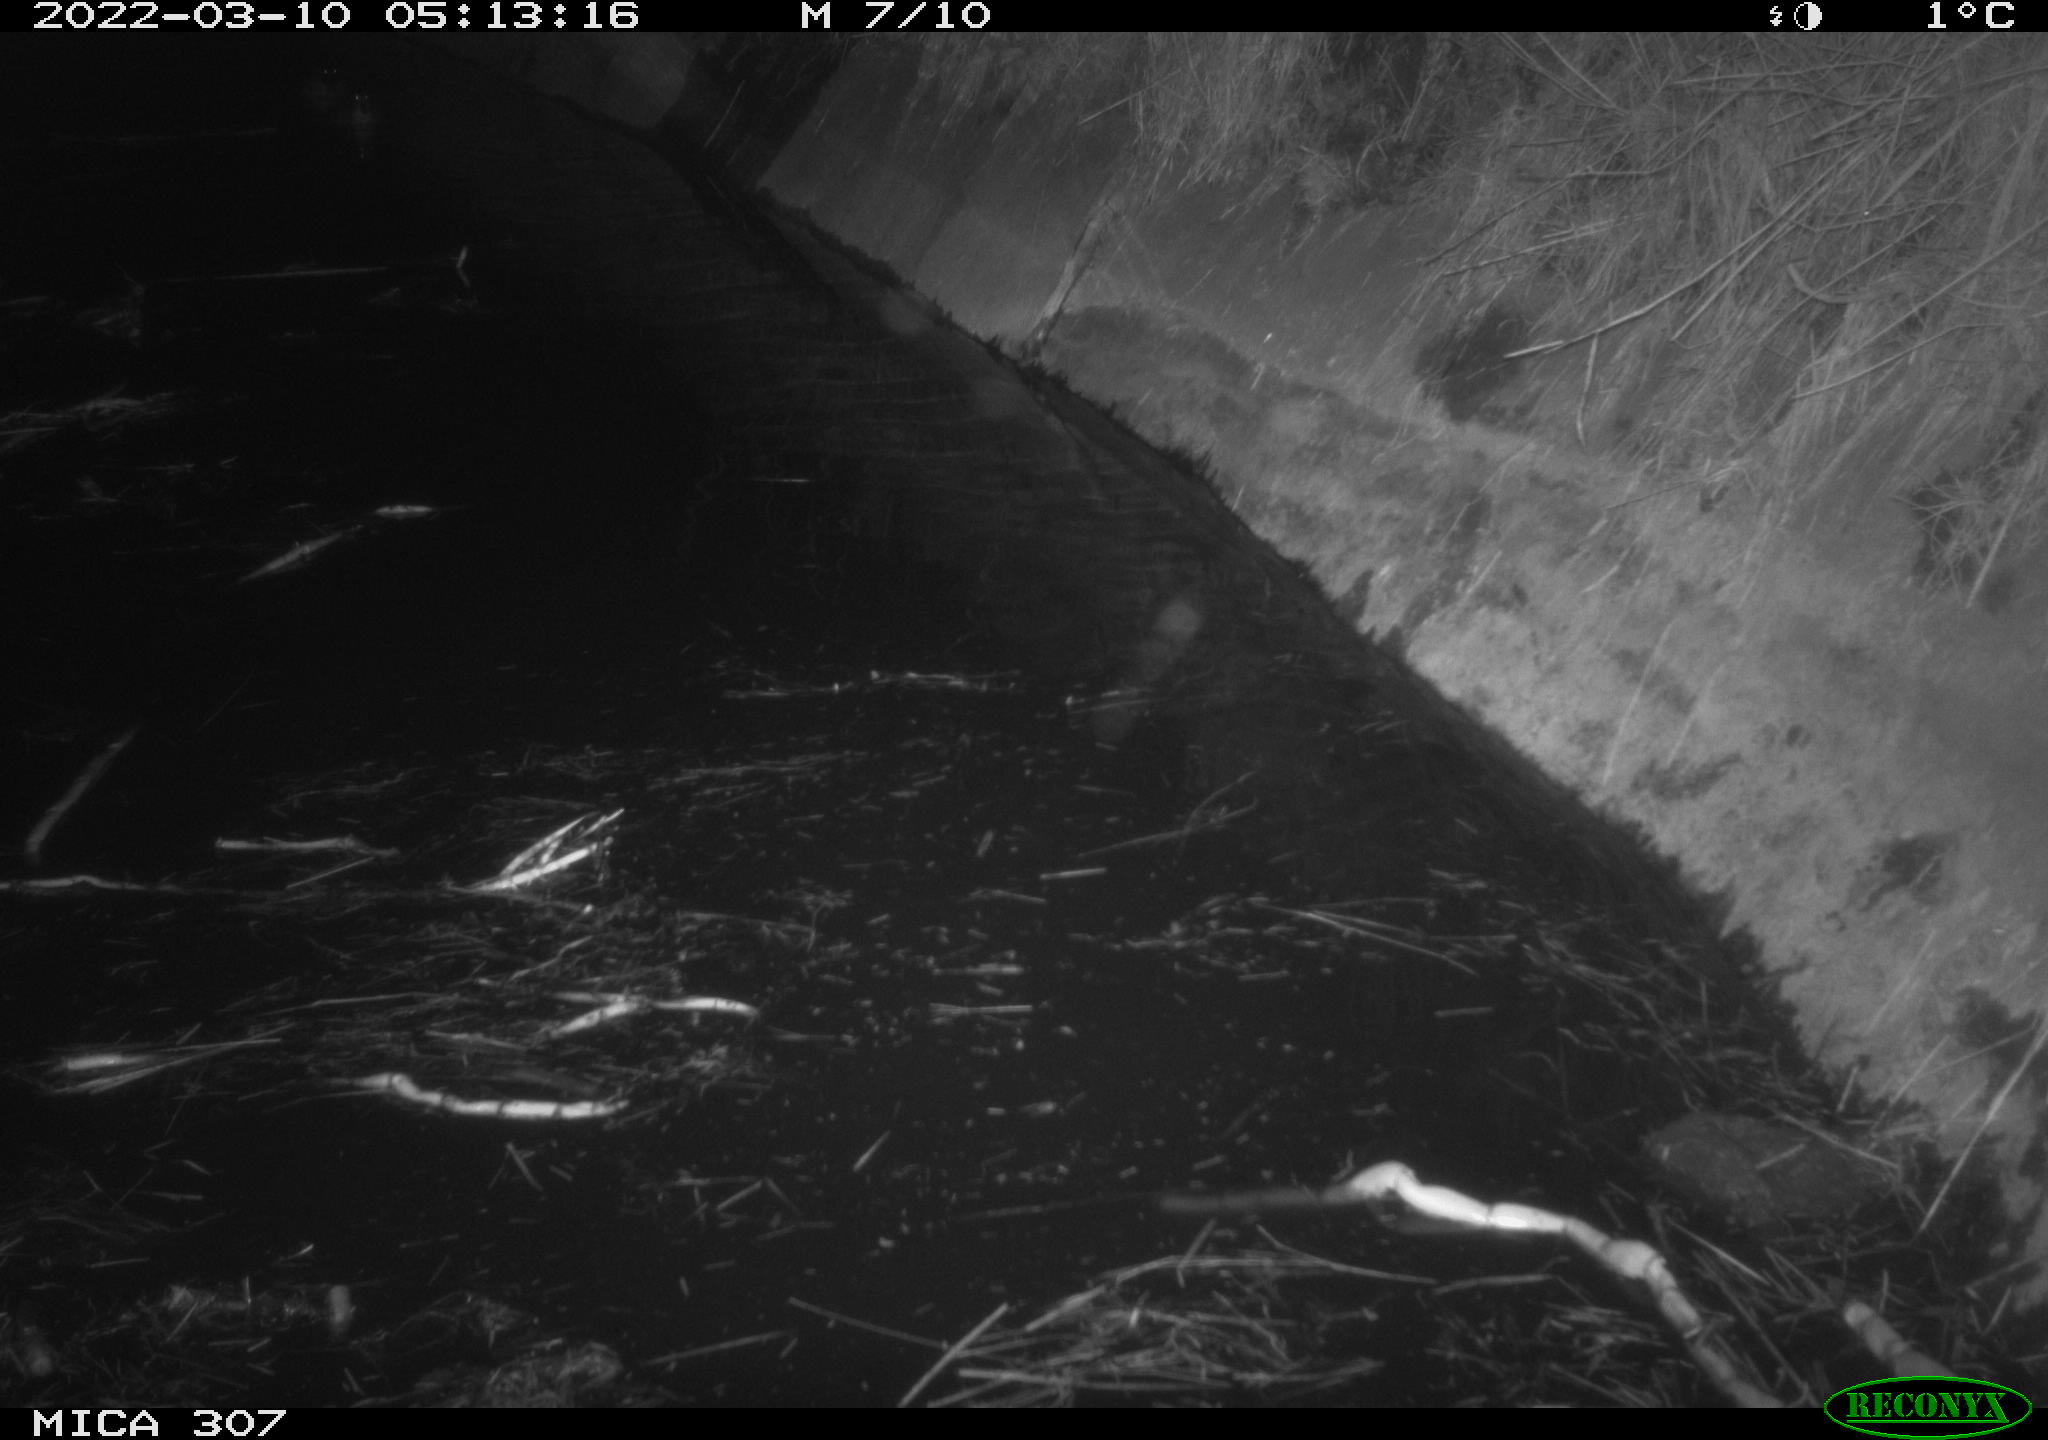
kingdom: Animalia
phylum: Chordata
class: Mammalia
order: Rodentia
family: Cricetidae
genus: Ondatra
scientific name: Ondatra zibethicus
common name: Muskrat
